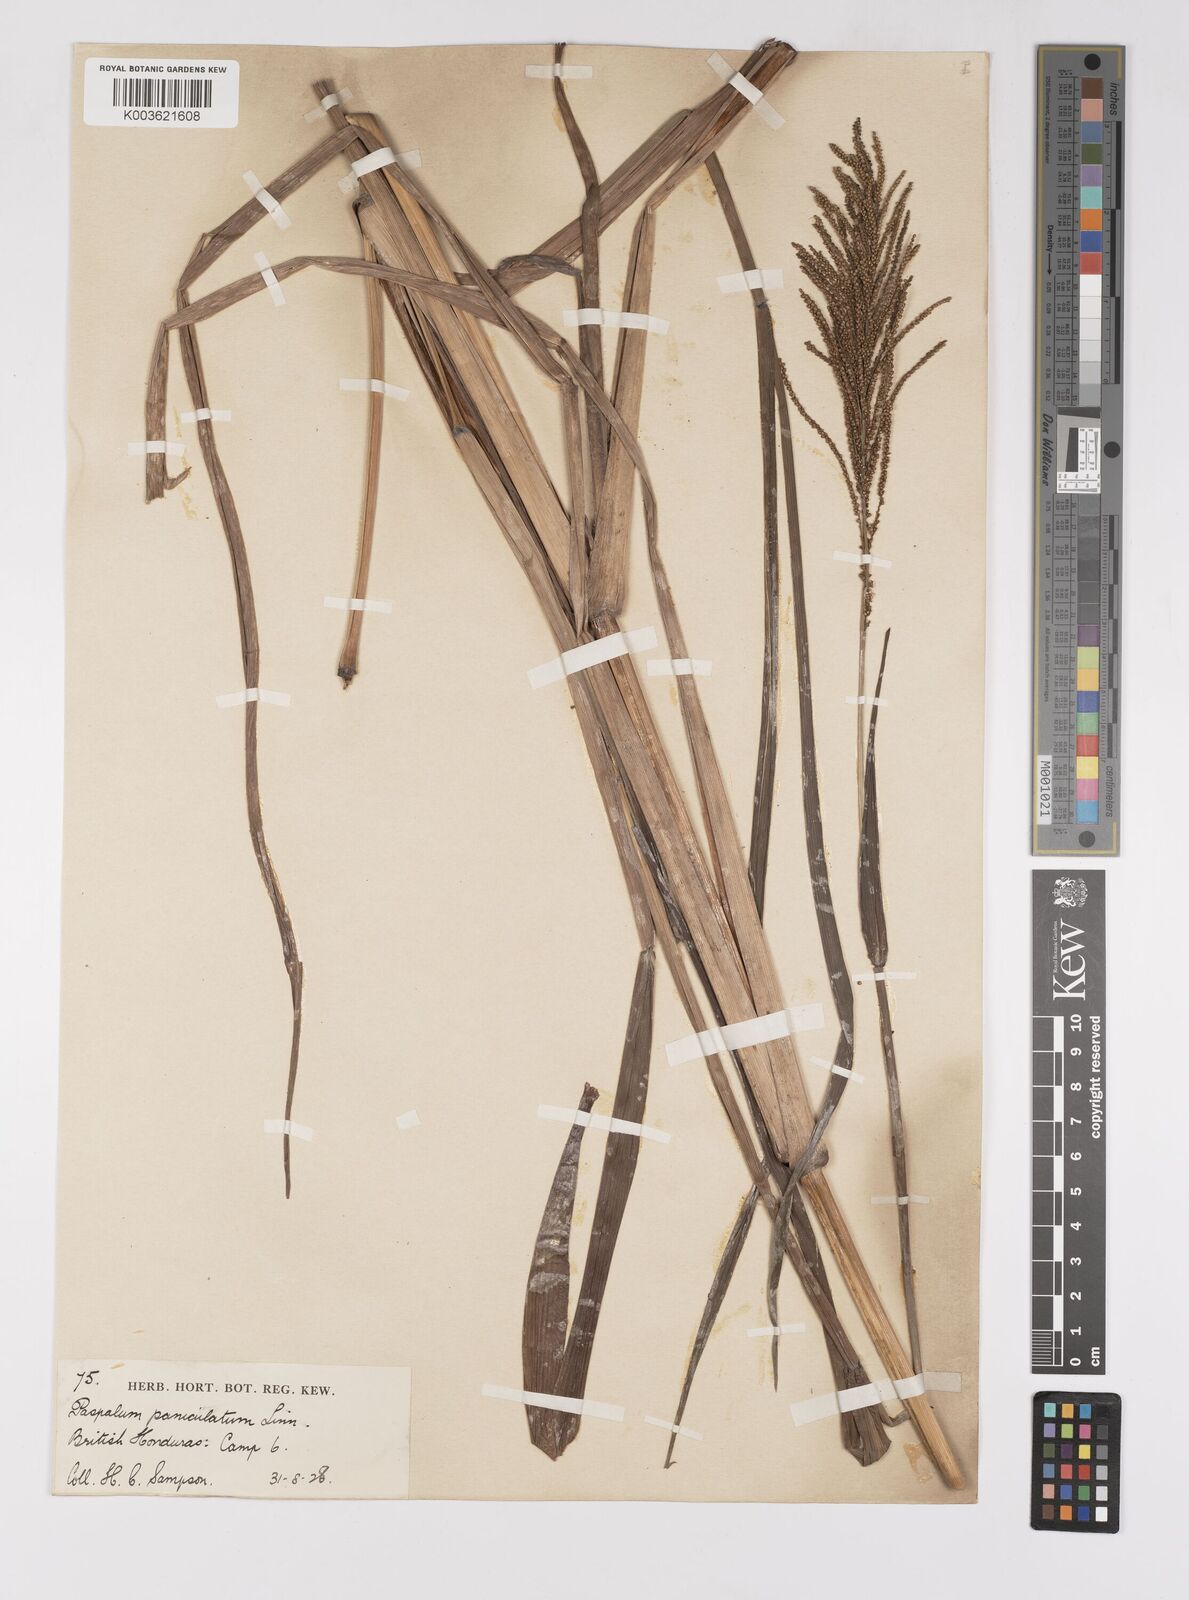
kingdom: Plantae
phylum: Tracheophyta
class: Liliopsida
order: Poales
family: Poaceae
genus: Paspalum
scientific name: Paspalum paniculatum
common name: Arrocillo
